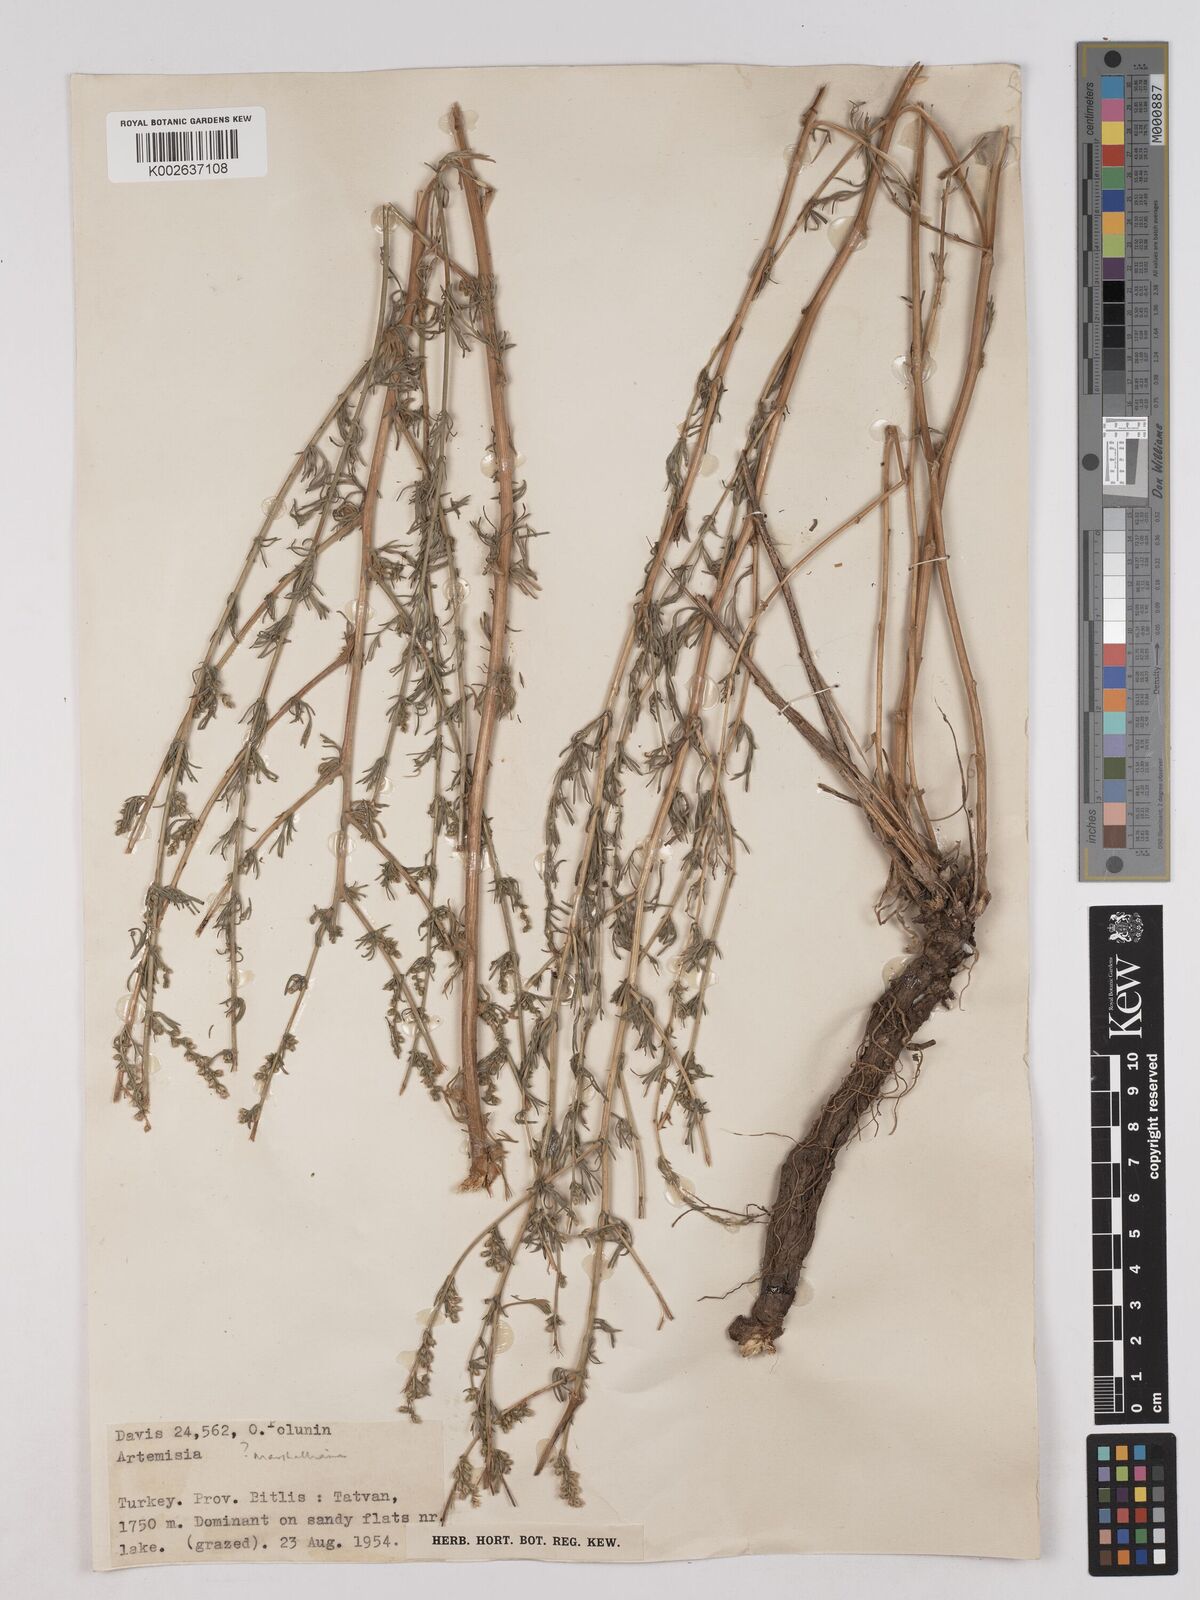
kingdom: Plantae
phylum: Tracheophyta
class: Magnoliopsida
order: Asterales
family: Asteraceae
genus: Artemisia
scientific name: Artemisia marschalliana
